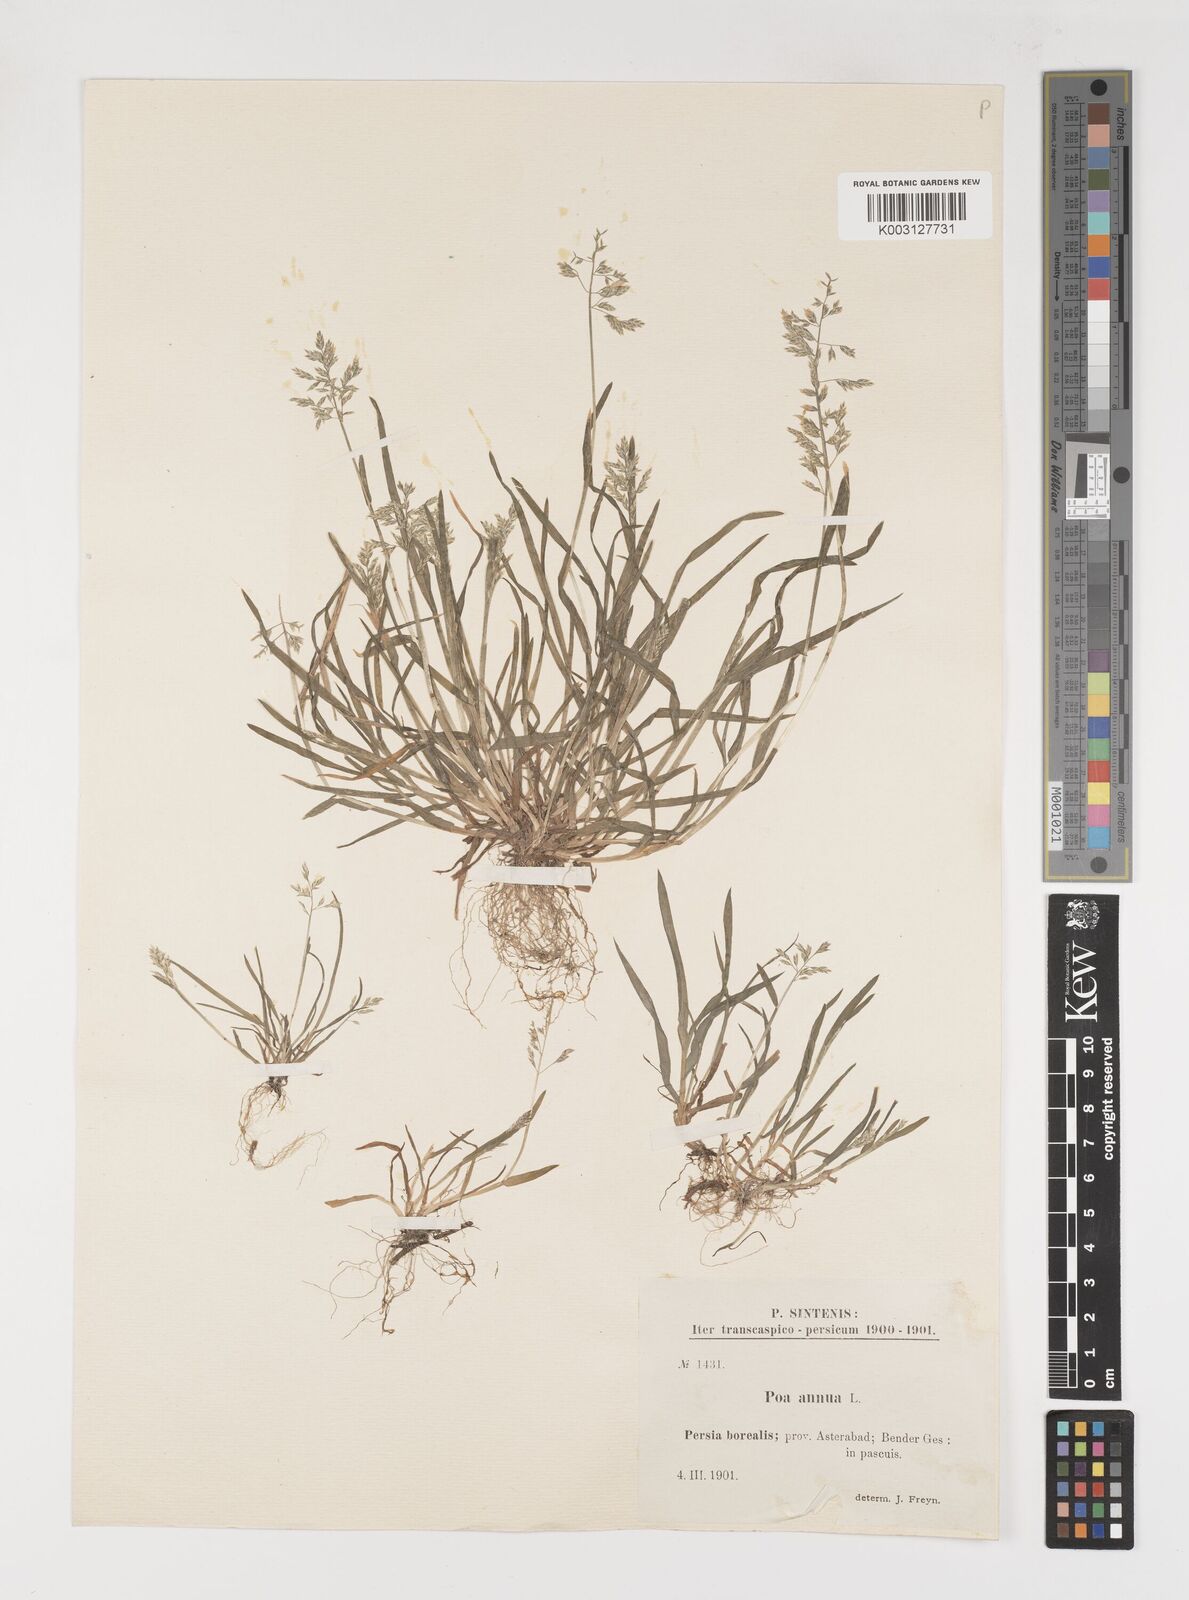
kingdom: Plantae
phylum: Tracheophyta
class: Liliopsida
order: Poales
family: Poaceae
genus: Poa
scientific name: Poa annua
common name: Annual bluegrass
